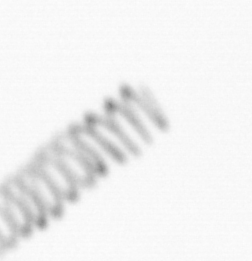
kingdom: Chromista
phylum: Ochrophyta
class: Bacillariophyceae
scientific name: Bacillariophyceae
